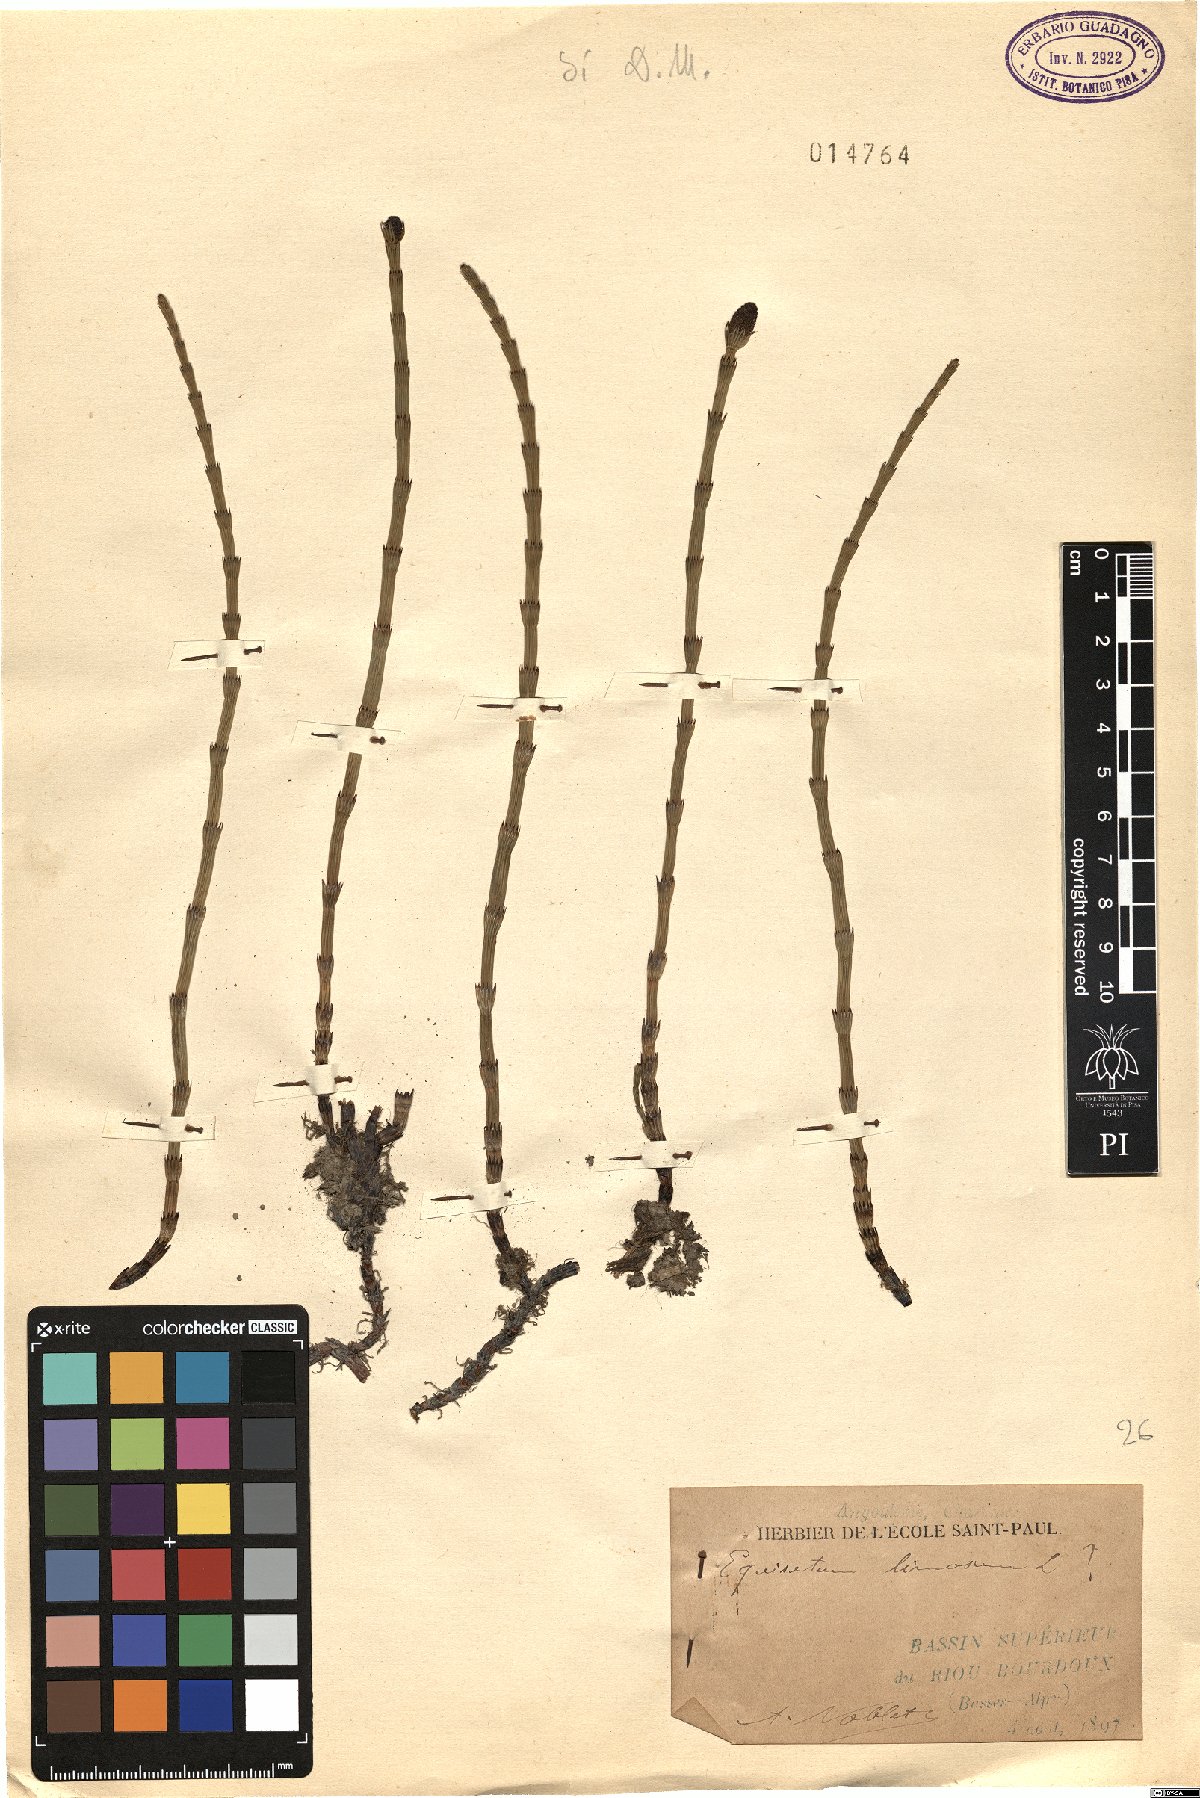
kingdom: Plantae
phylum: Tracheophyta
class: Polypodiopsida
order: Equisetales
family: Equisetaceae
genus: Equisetum
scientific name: Equisetum fluviatile
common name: Water horsetail
